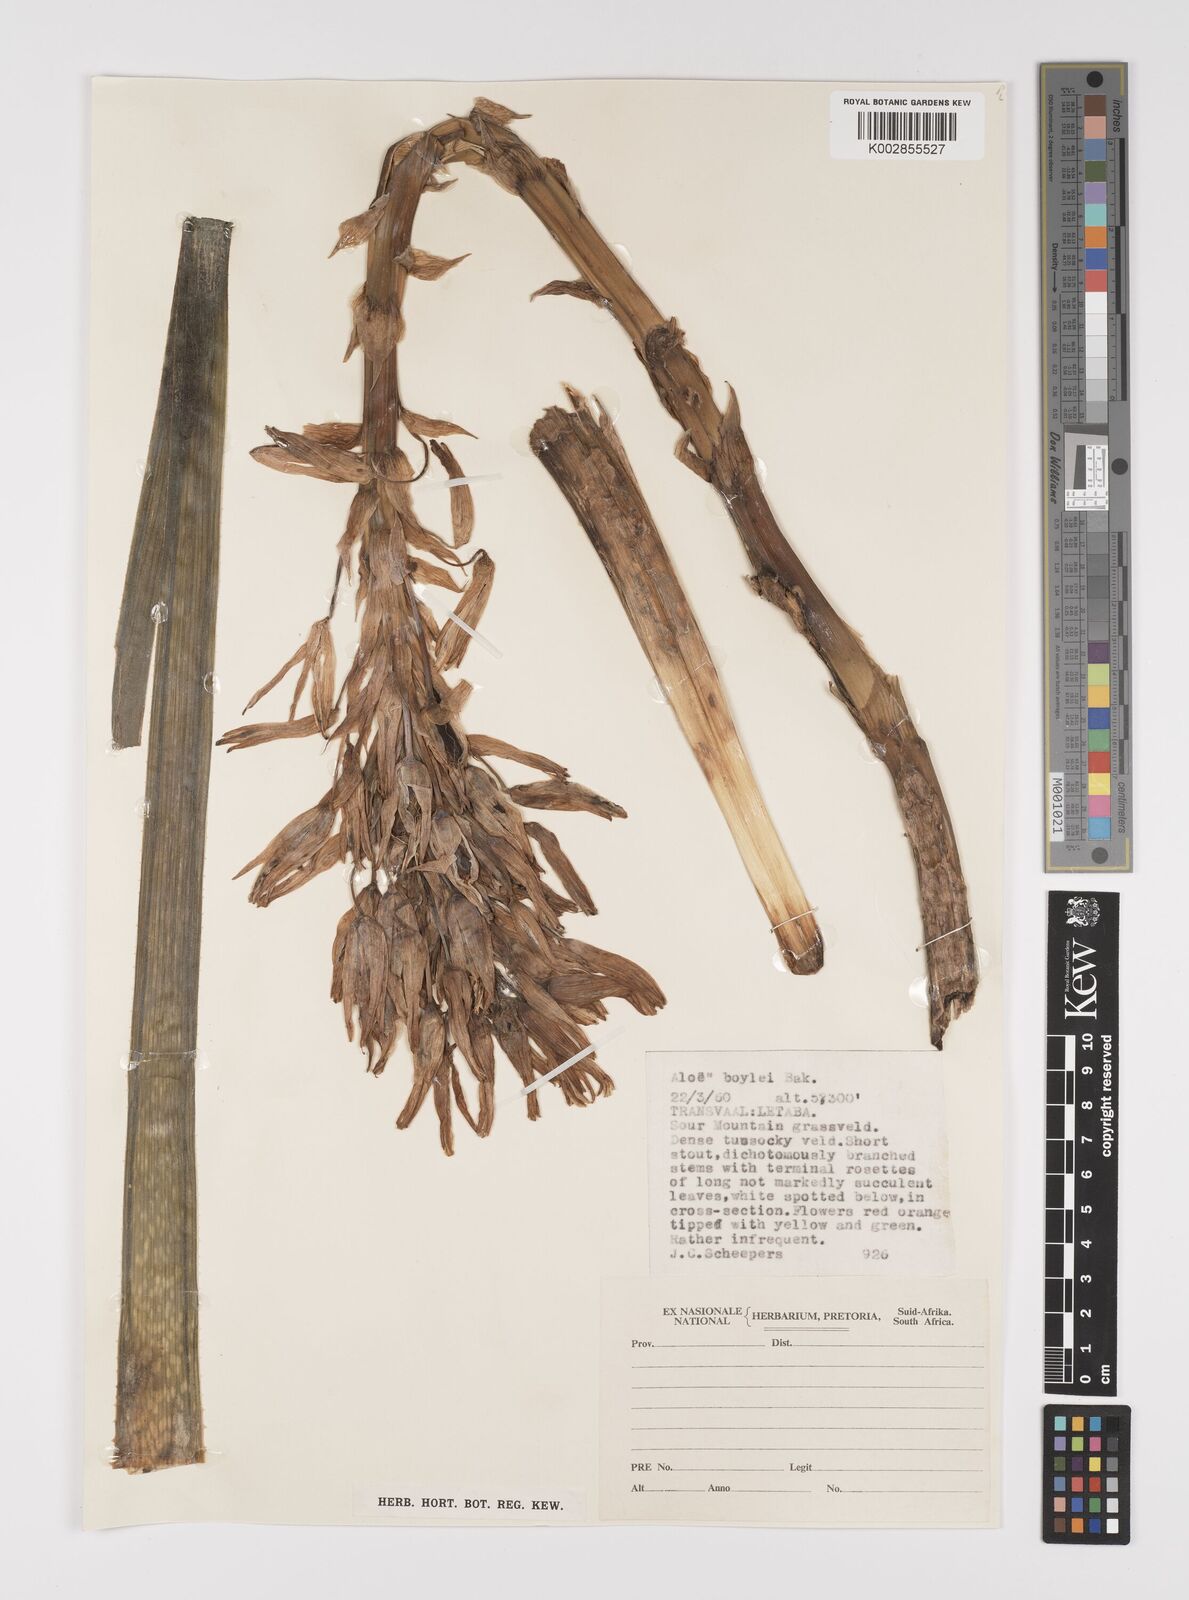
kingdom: Plantae
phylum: Tracheophyta
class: Liliopsida
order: Asparagales
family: Asphodelaceae
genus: Aloe
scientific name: Aloe boylei
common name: Broad-leaved grass aloe
